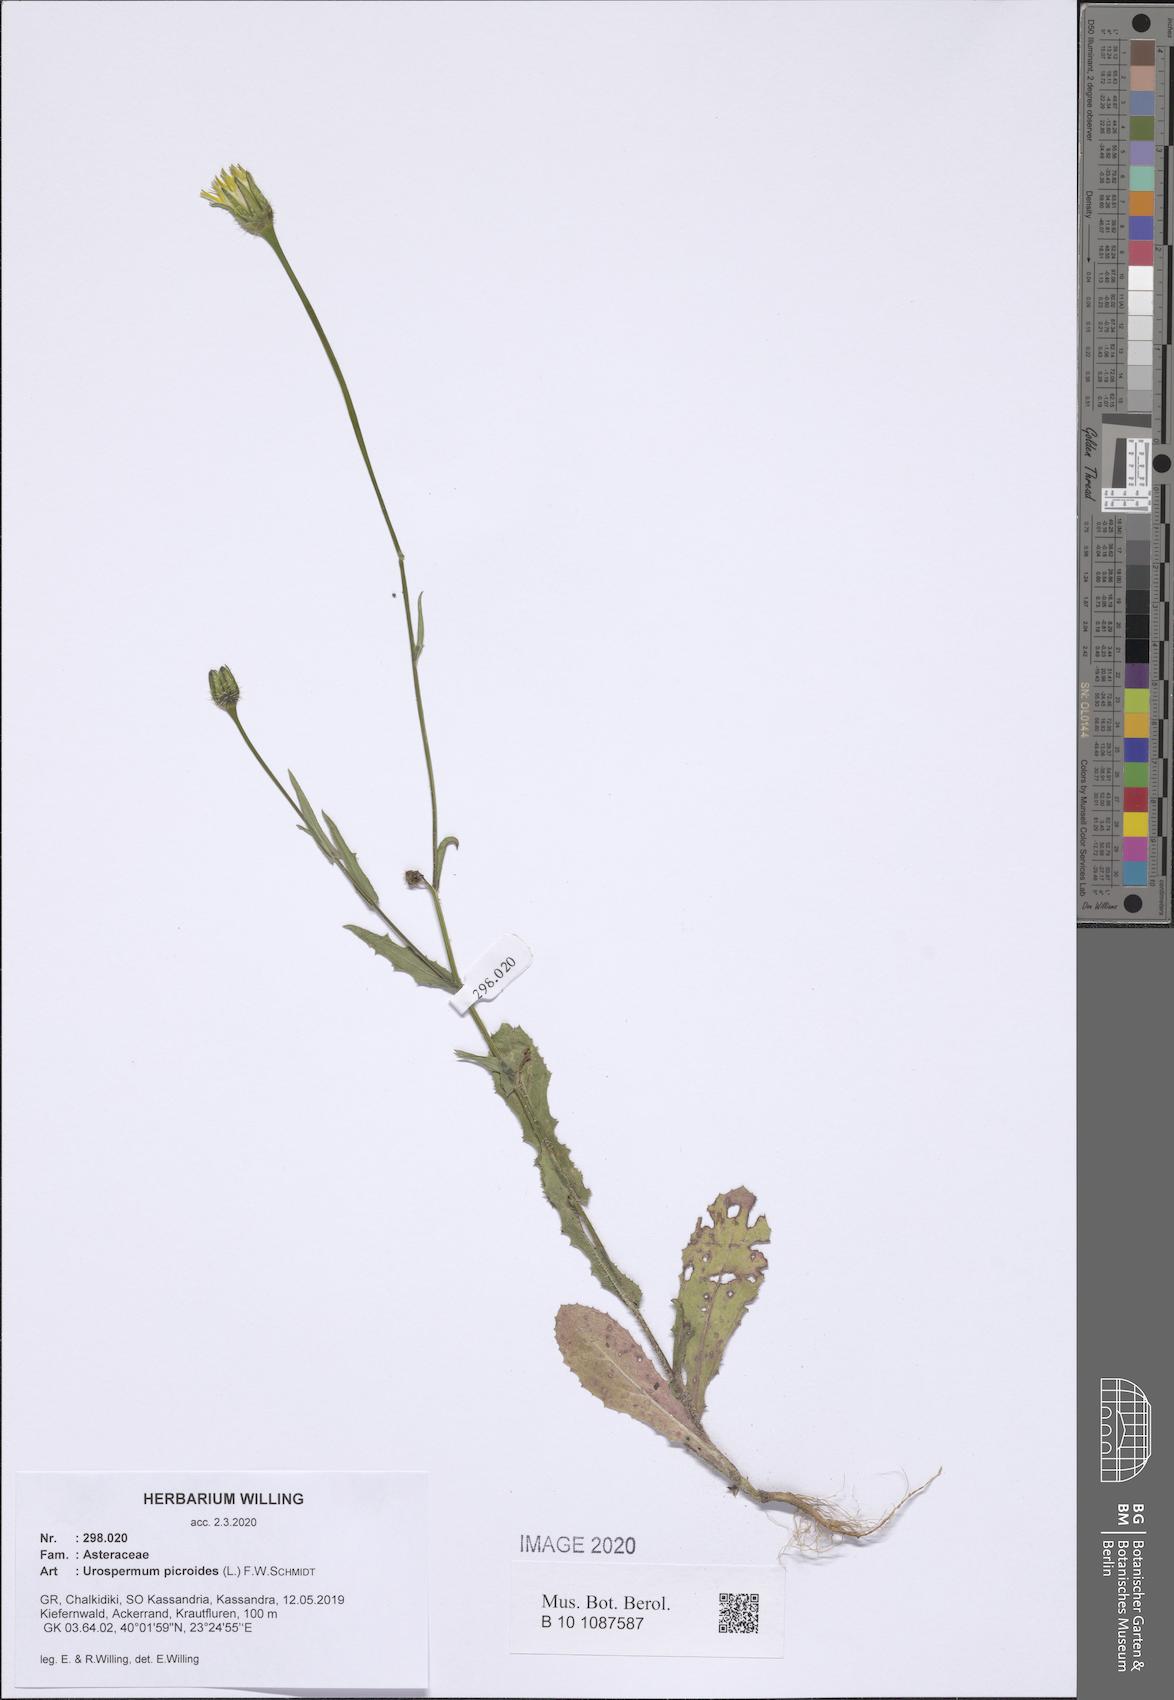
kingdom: Plantae
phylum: Tracheophyta
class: Magnoliopsida
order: Asterales
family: Asteraceae
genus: Urospermum
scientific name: Urospermum picroides
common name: False hawkbit
